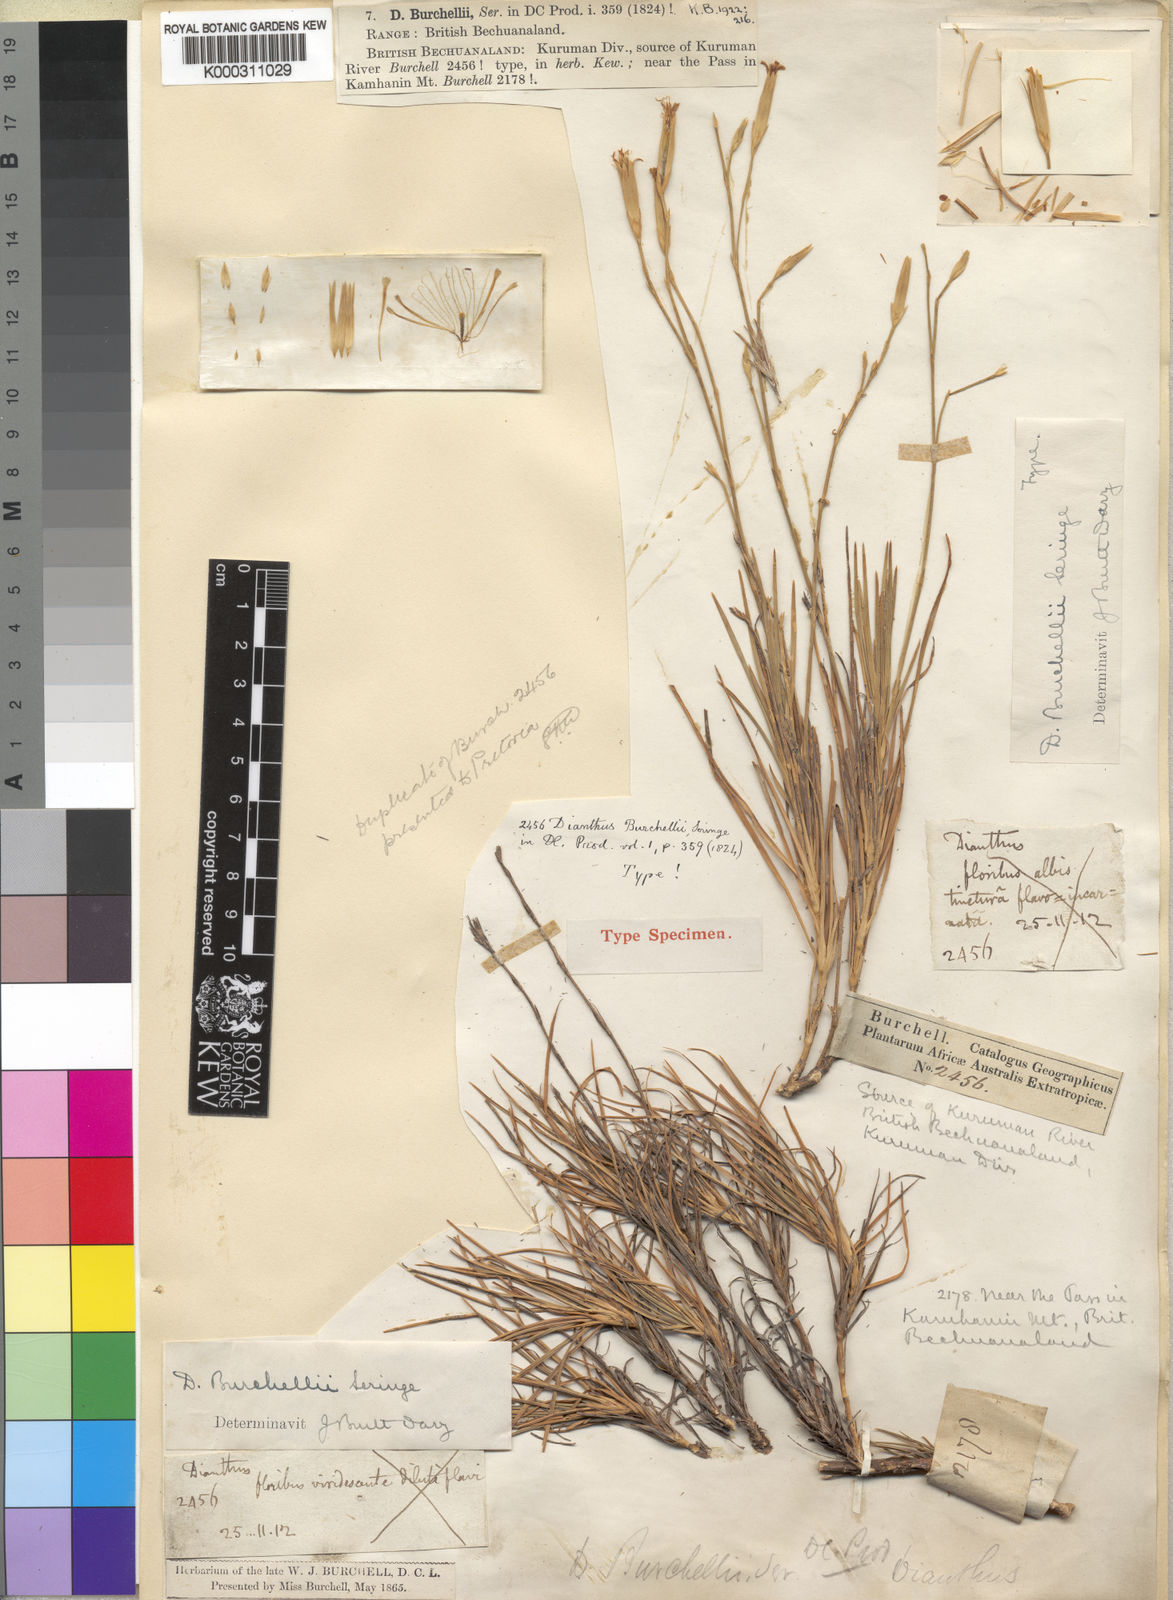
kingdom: Plantae
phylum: Tracheophyta
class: Magnoliopsida
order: Caryophyllales
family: Caryophyllaceae
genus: Dianthus
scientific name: Dianthus burchellii
